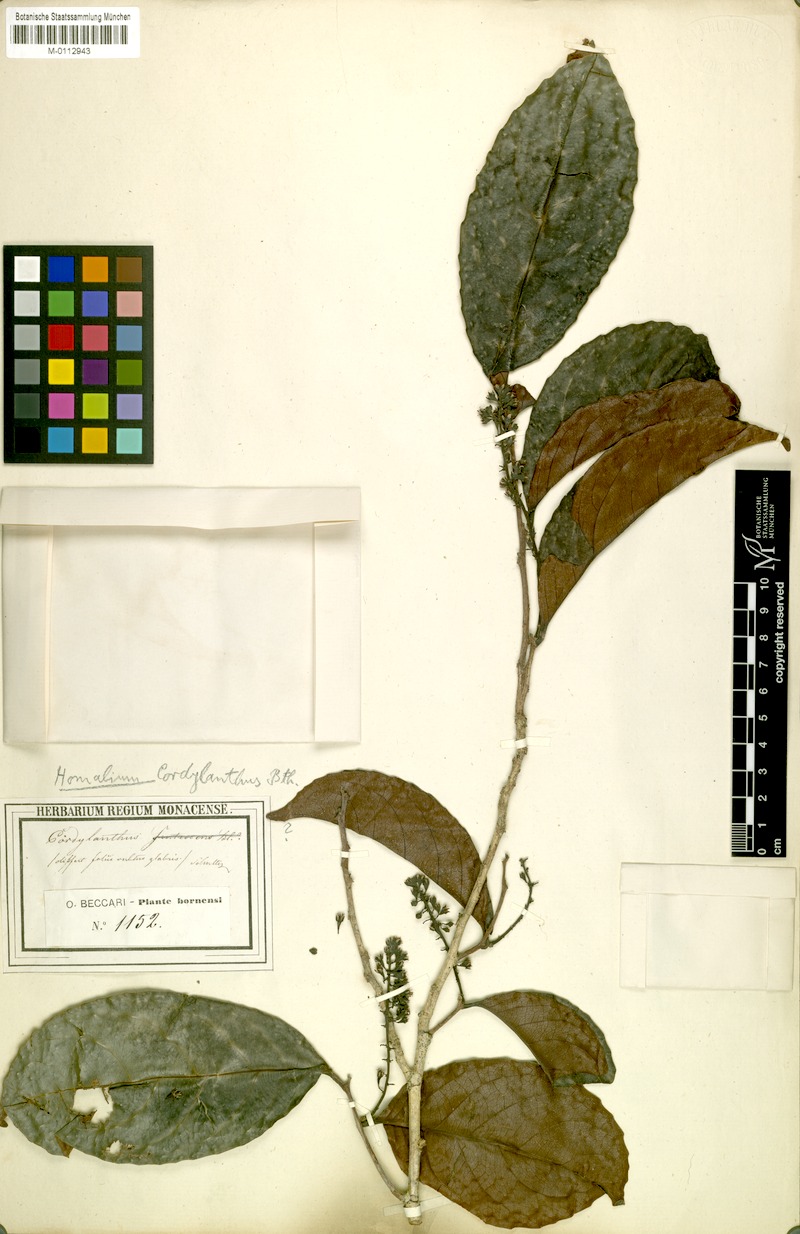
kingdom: Plantae
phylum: Tracheophyta
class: Magnoliopsida
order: Malpighiales
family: Salicaceae
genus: Homalium
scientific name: Homalium caryophyllaceum
